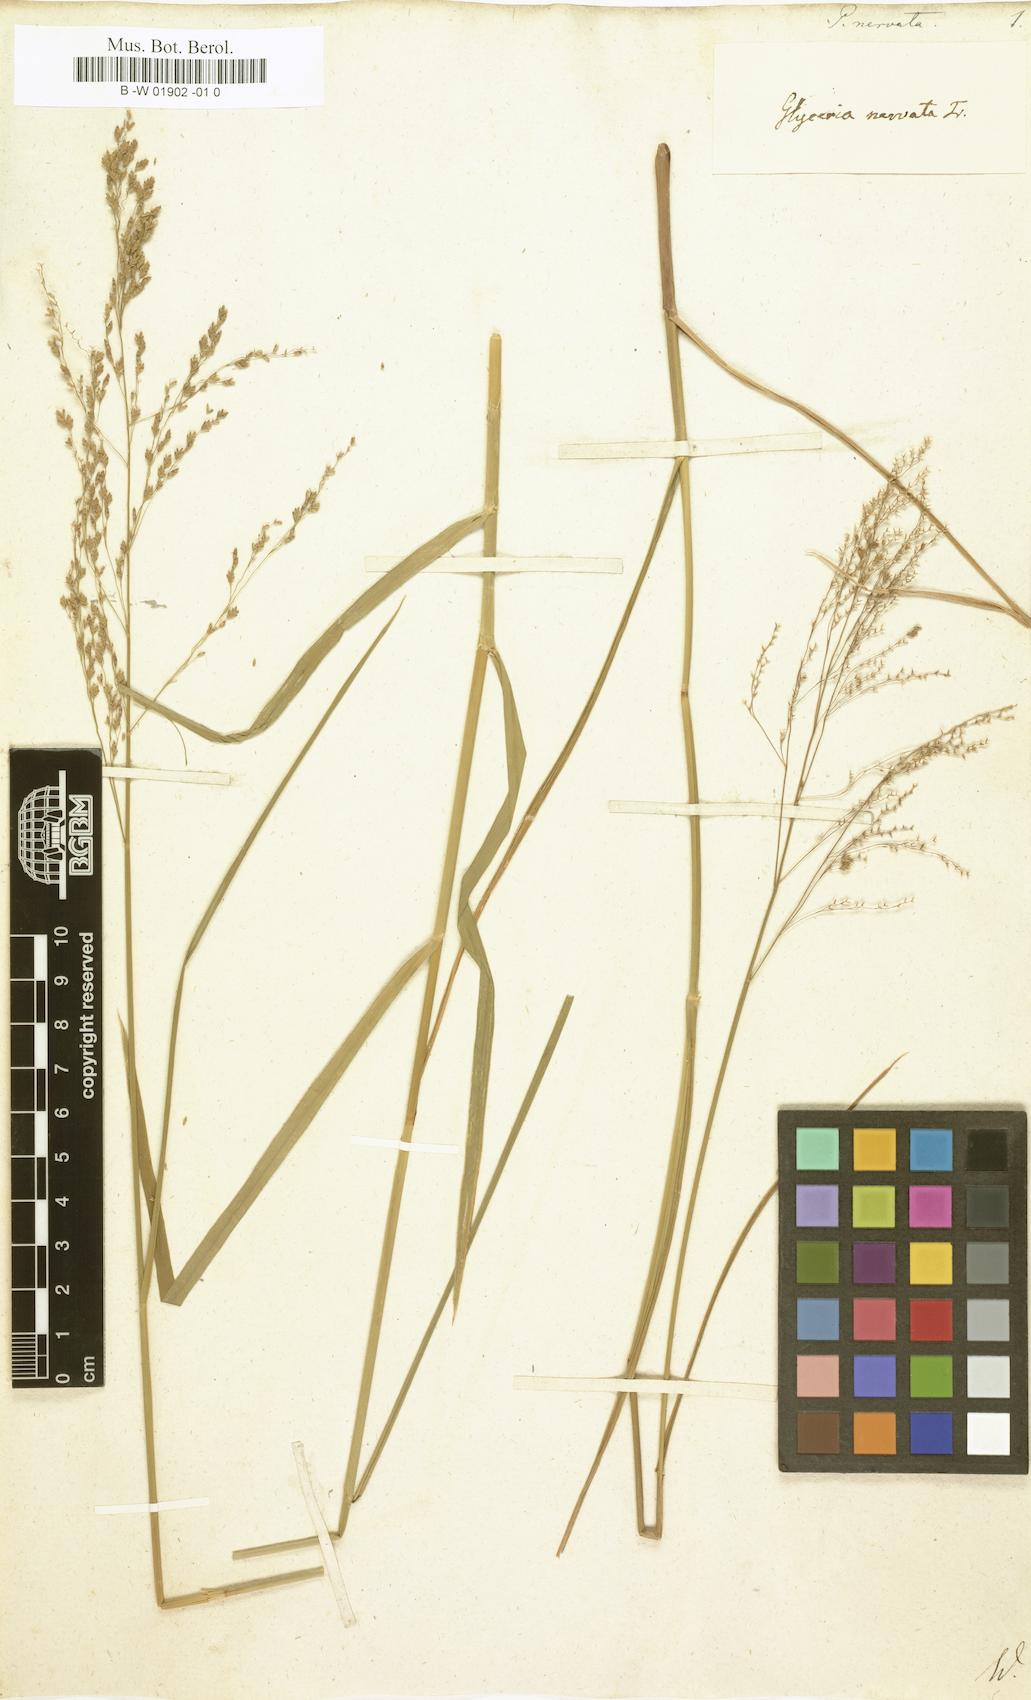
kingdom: Plantae
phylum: Tracheophyta
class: Liliopsida
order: Poales
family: Poaceae
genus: Glyceria
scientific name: Glyceria striata
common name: Fowl manna grass
